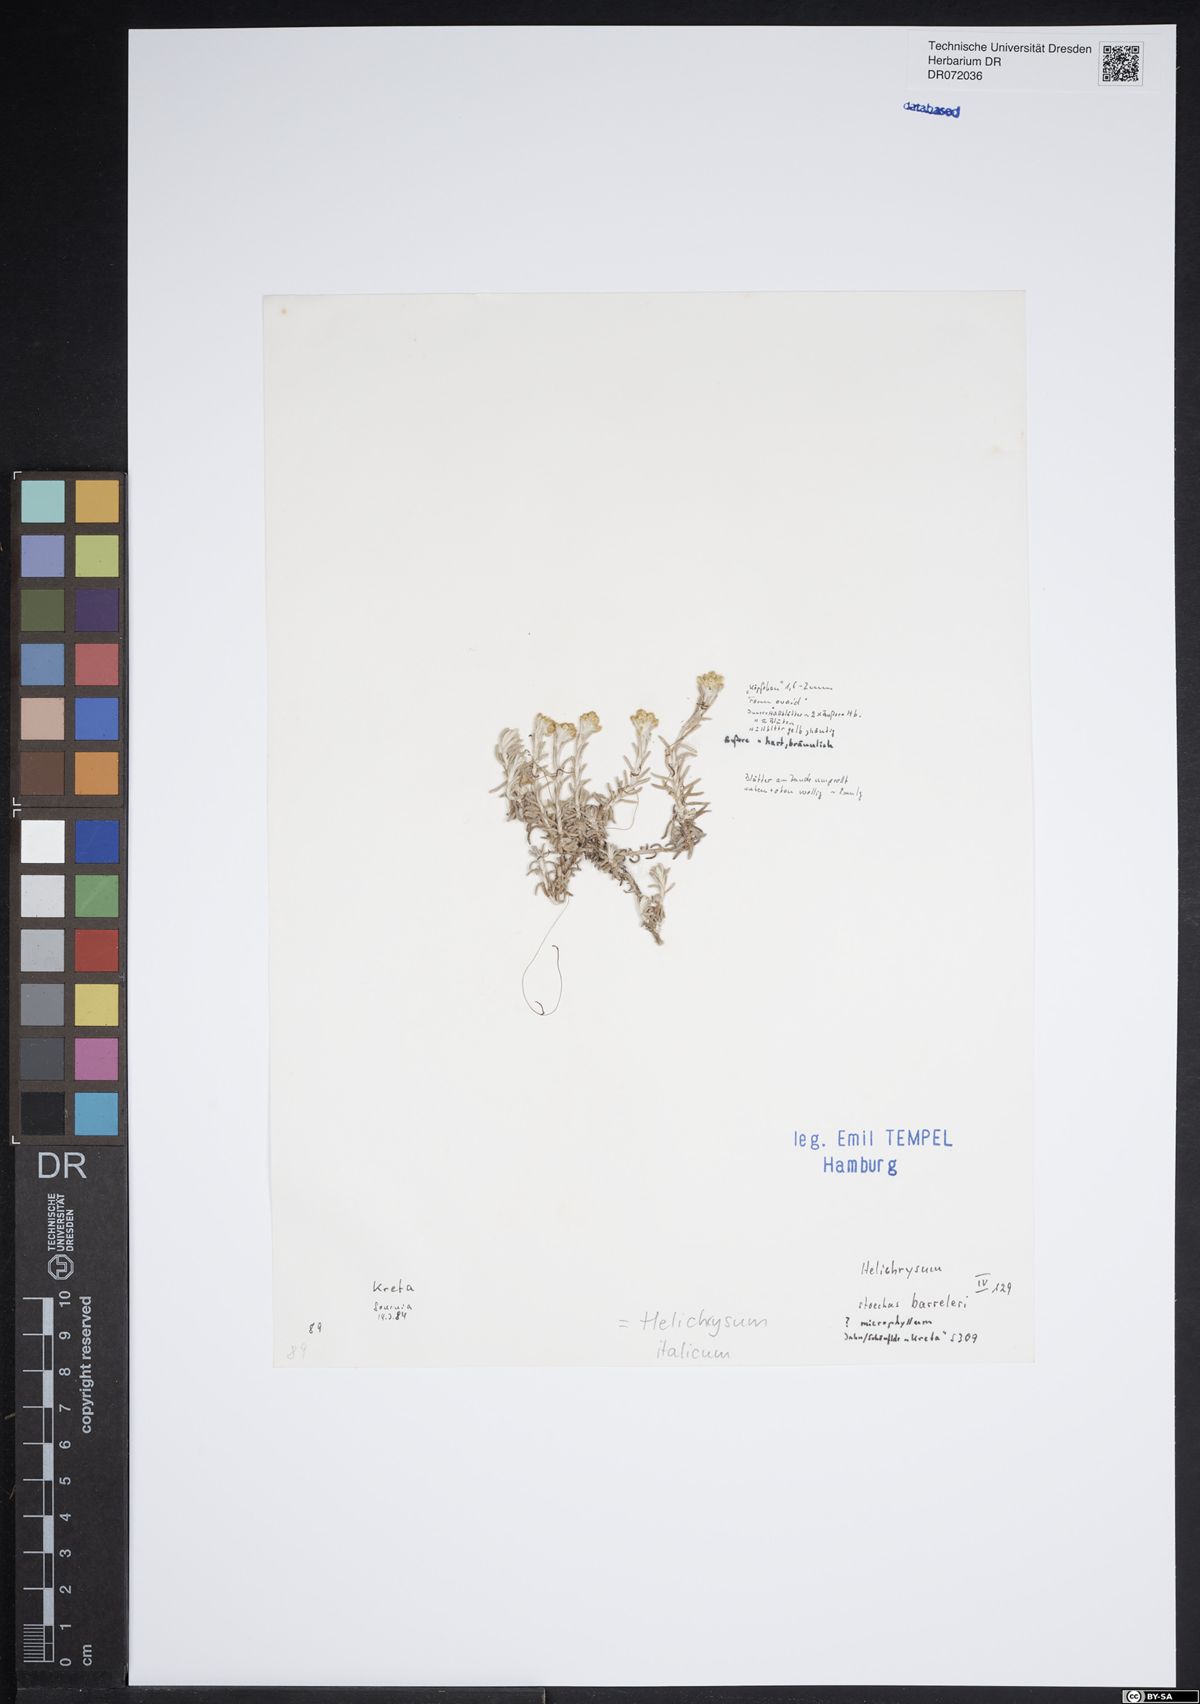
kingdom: Plantae
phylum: Tracheophyta
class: Magnoliopsida
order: Asterales
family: Asteraceae
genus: Helichrysum
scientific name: Helichrysum italicum
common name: Curryplant
